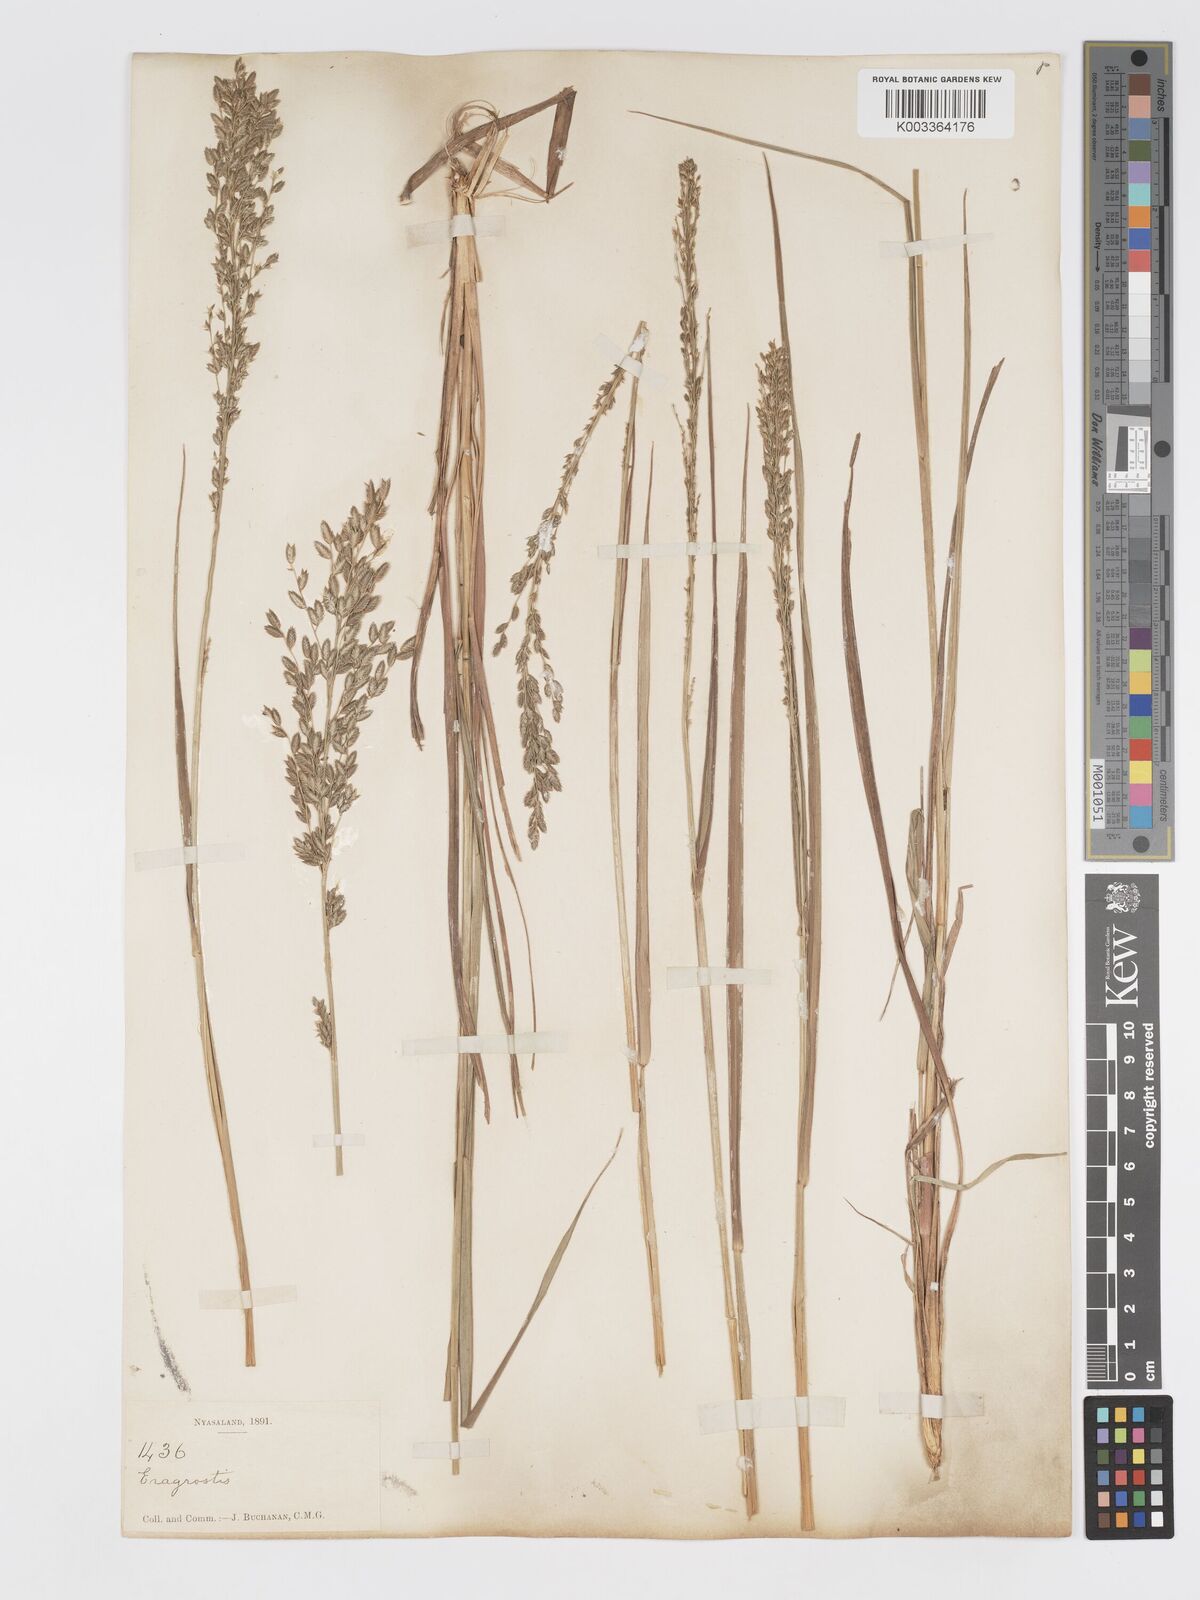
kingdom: Plantae
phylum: Tracheophyta
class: Liliopsida
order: Poales
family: Poaceae
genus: Eragrostis
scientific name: Eragrostis racemosa
